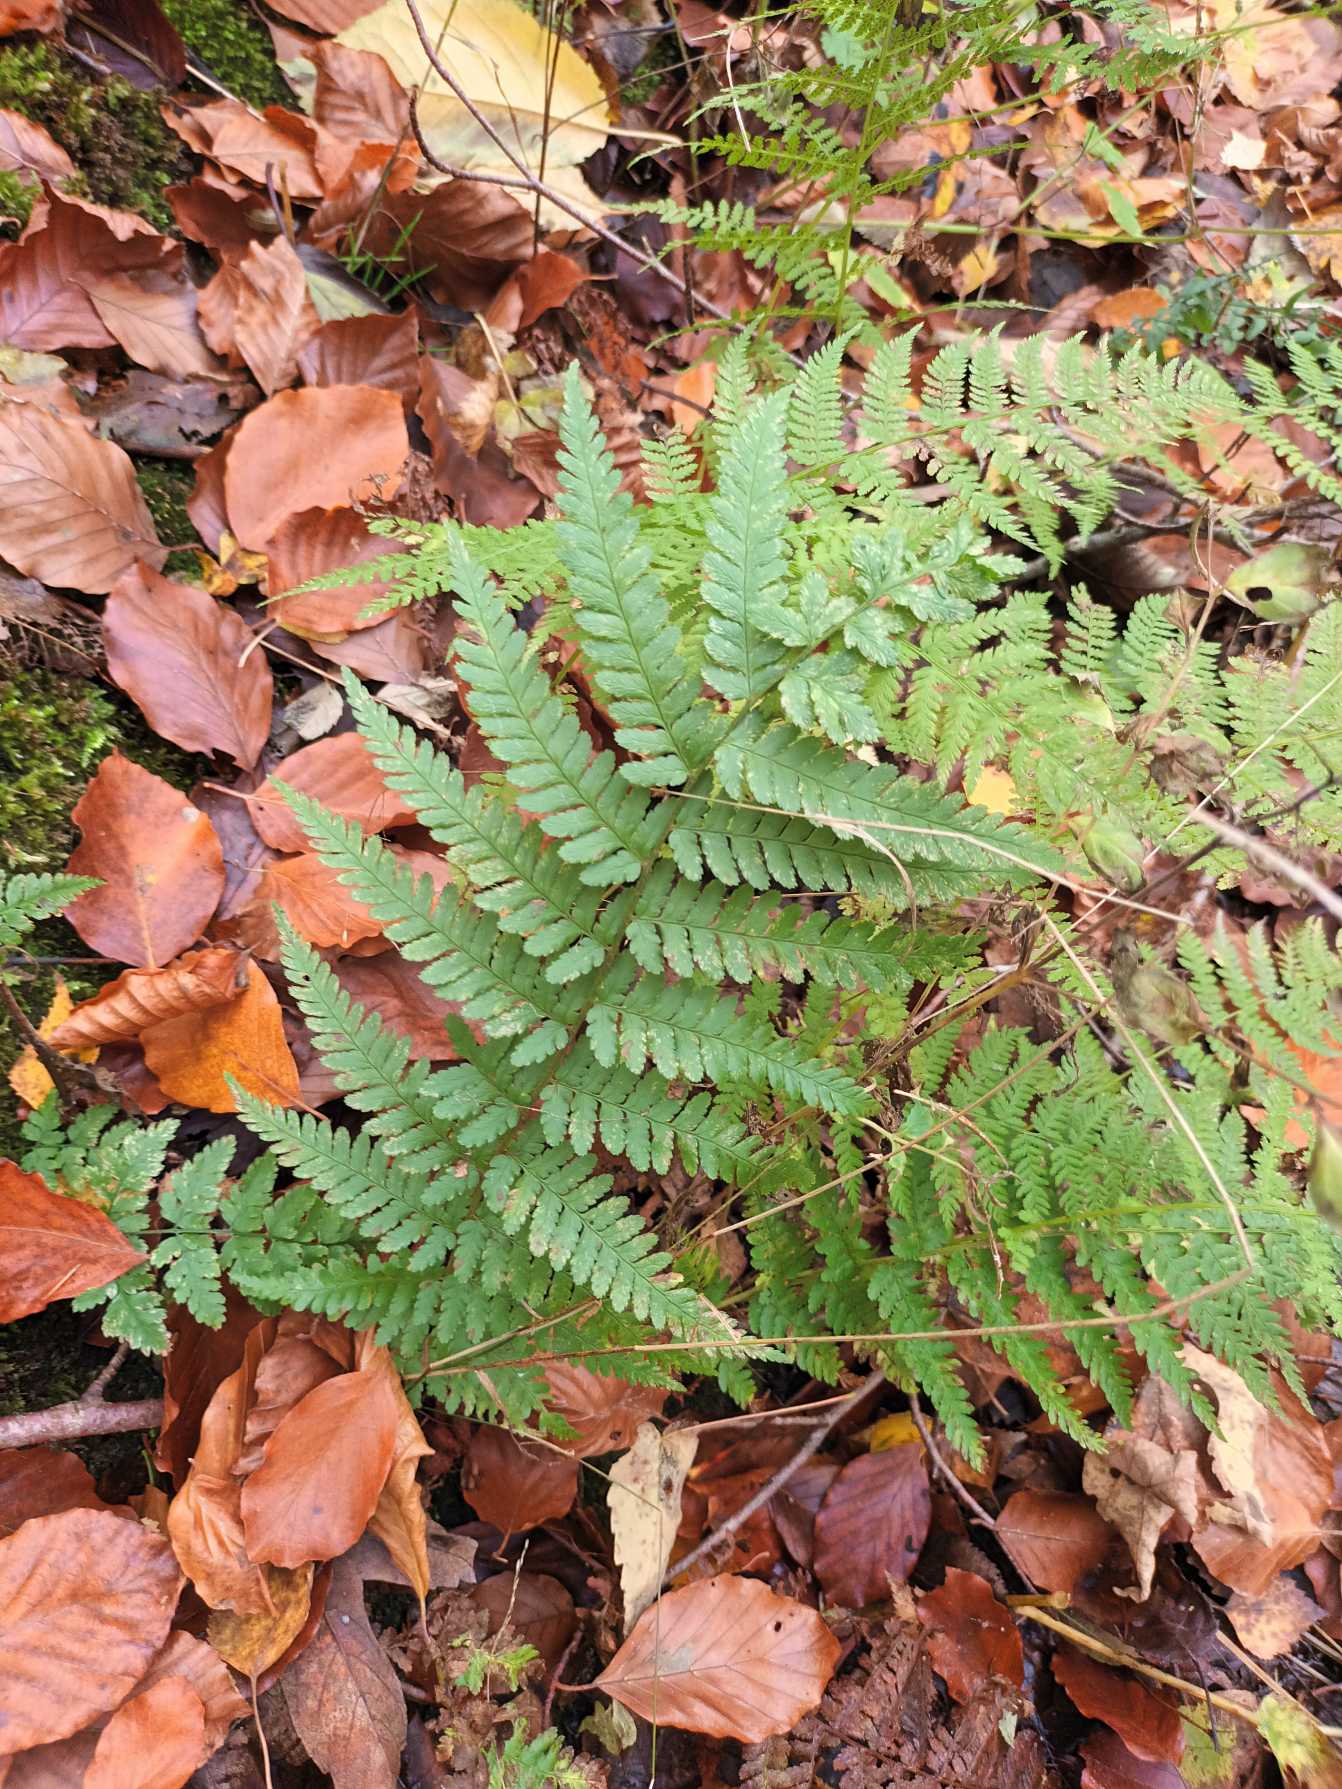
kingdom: Plantae
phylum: Tracheophyta
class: Polypodiopsida
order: Polypodiales
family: Dryopteridaceae
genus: Dryopteris
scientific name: Dryopteris filix-mas
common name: Almindelig mangeløv
